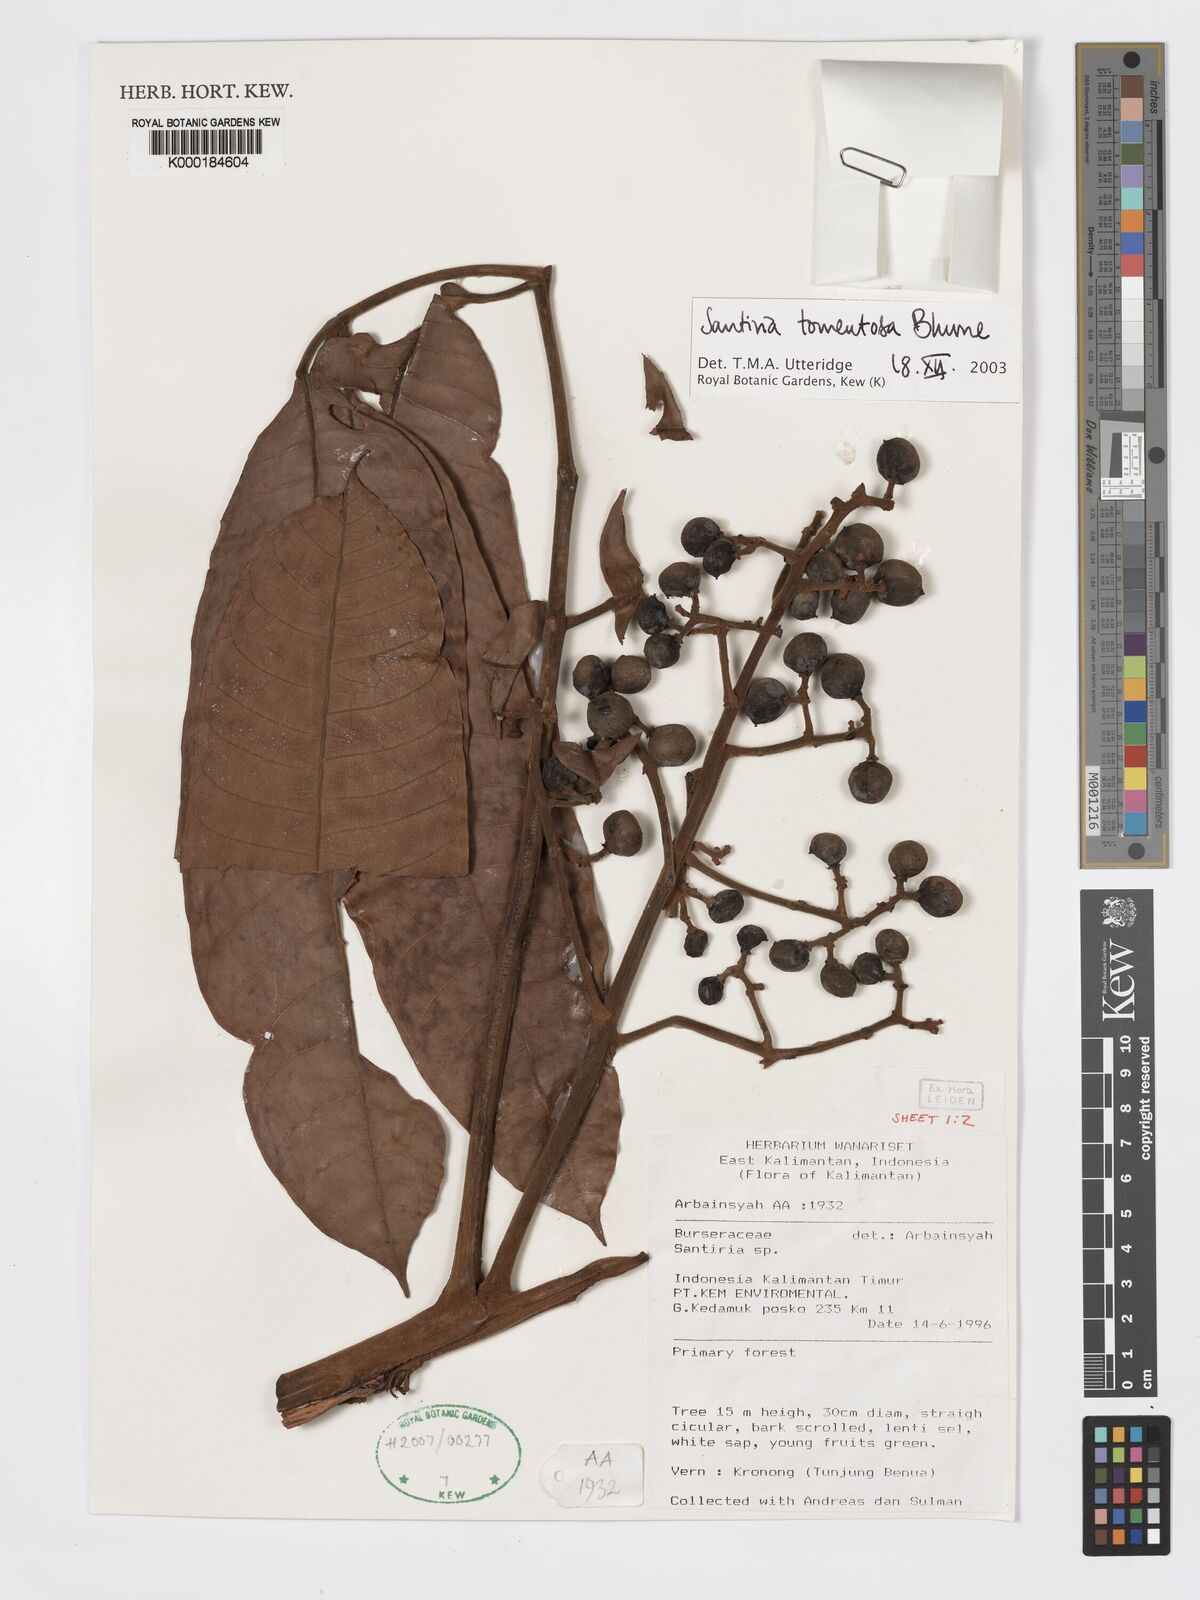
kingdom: Plantae
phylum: Tracheophyta
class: Magnoliopsida
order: Sapindales
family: Burseraceae
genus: Santiria
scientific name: Santiria tomentosa
